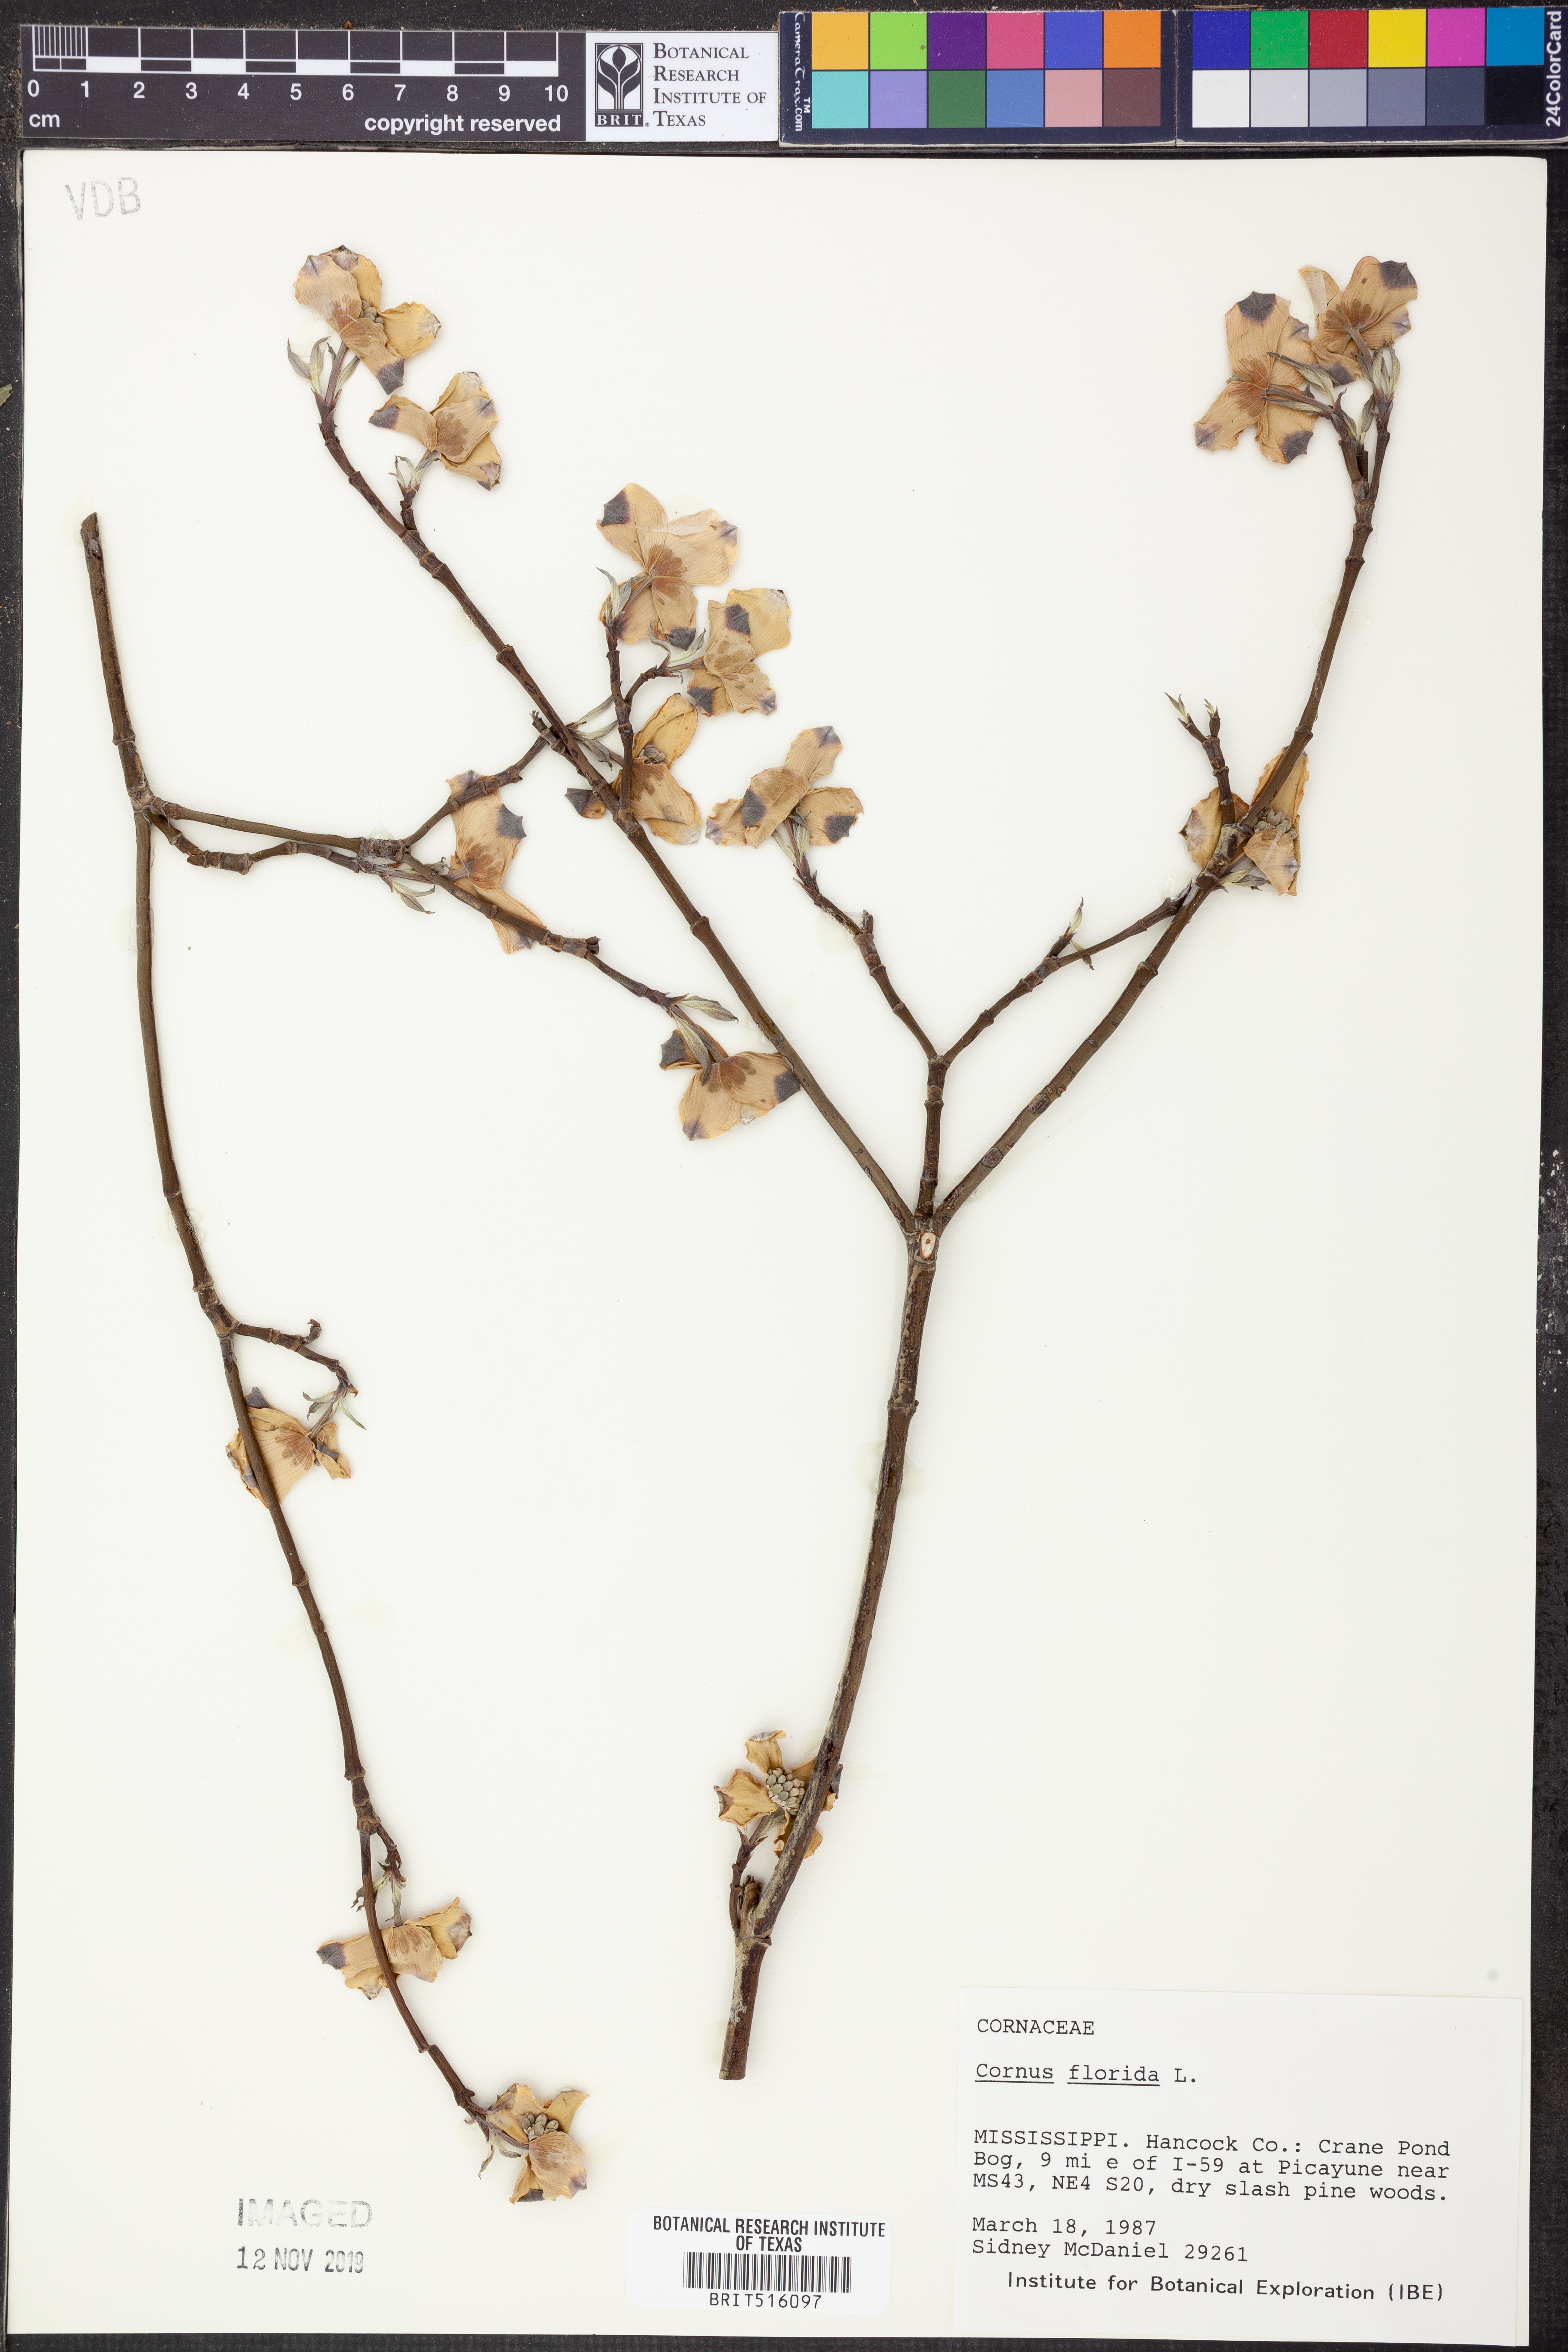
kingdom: Plantae
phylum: Tracheophyta
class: Magnoliopsida
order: Cornales
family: Cornaceae
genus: Cornus
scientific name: Cornus florida
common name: Flowering dogwood
